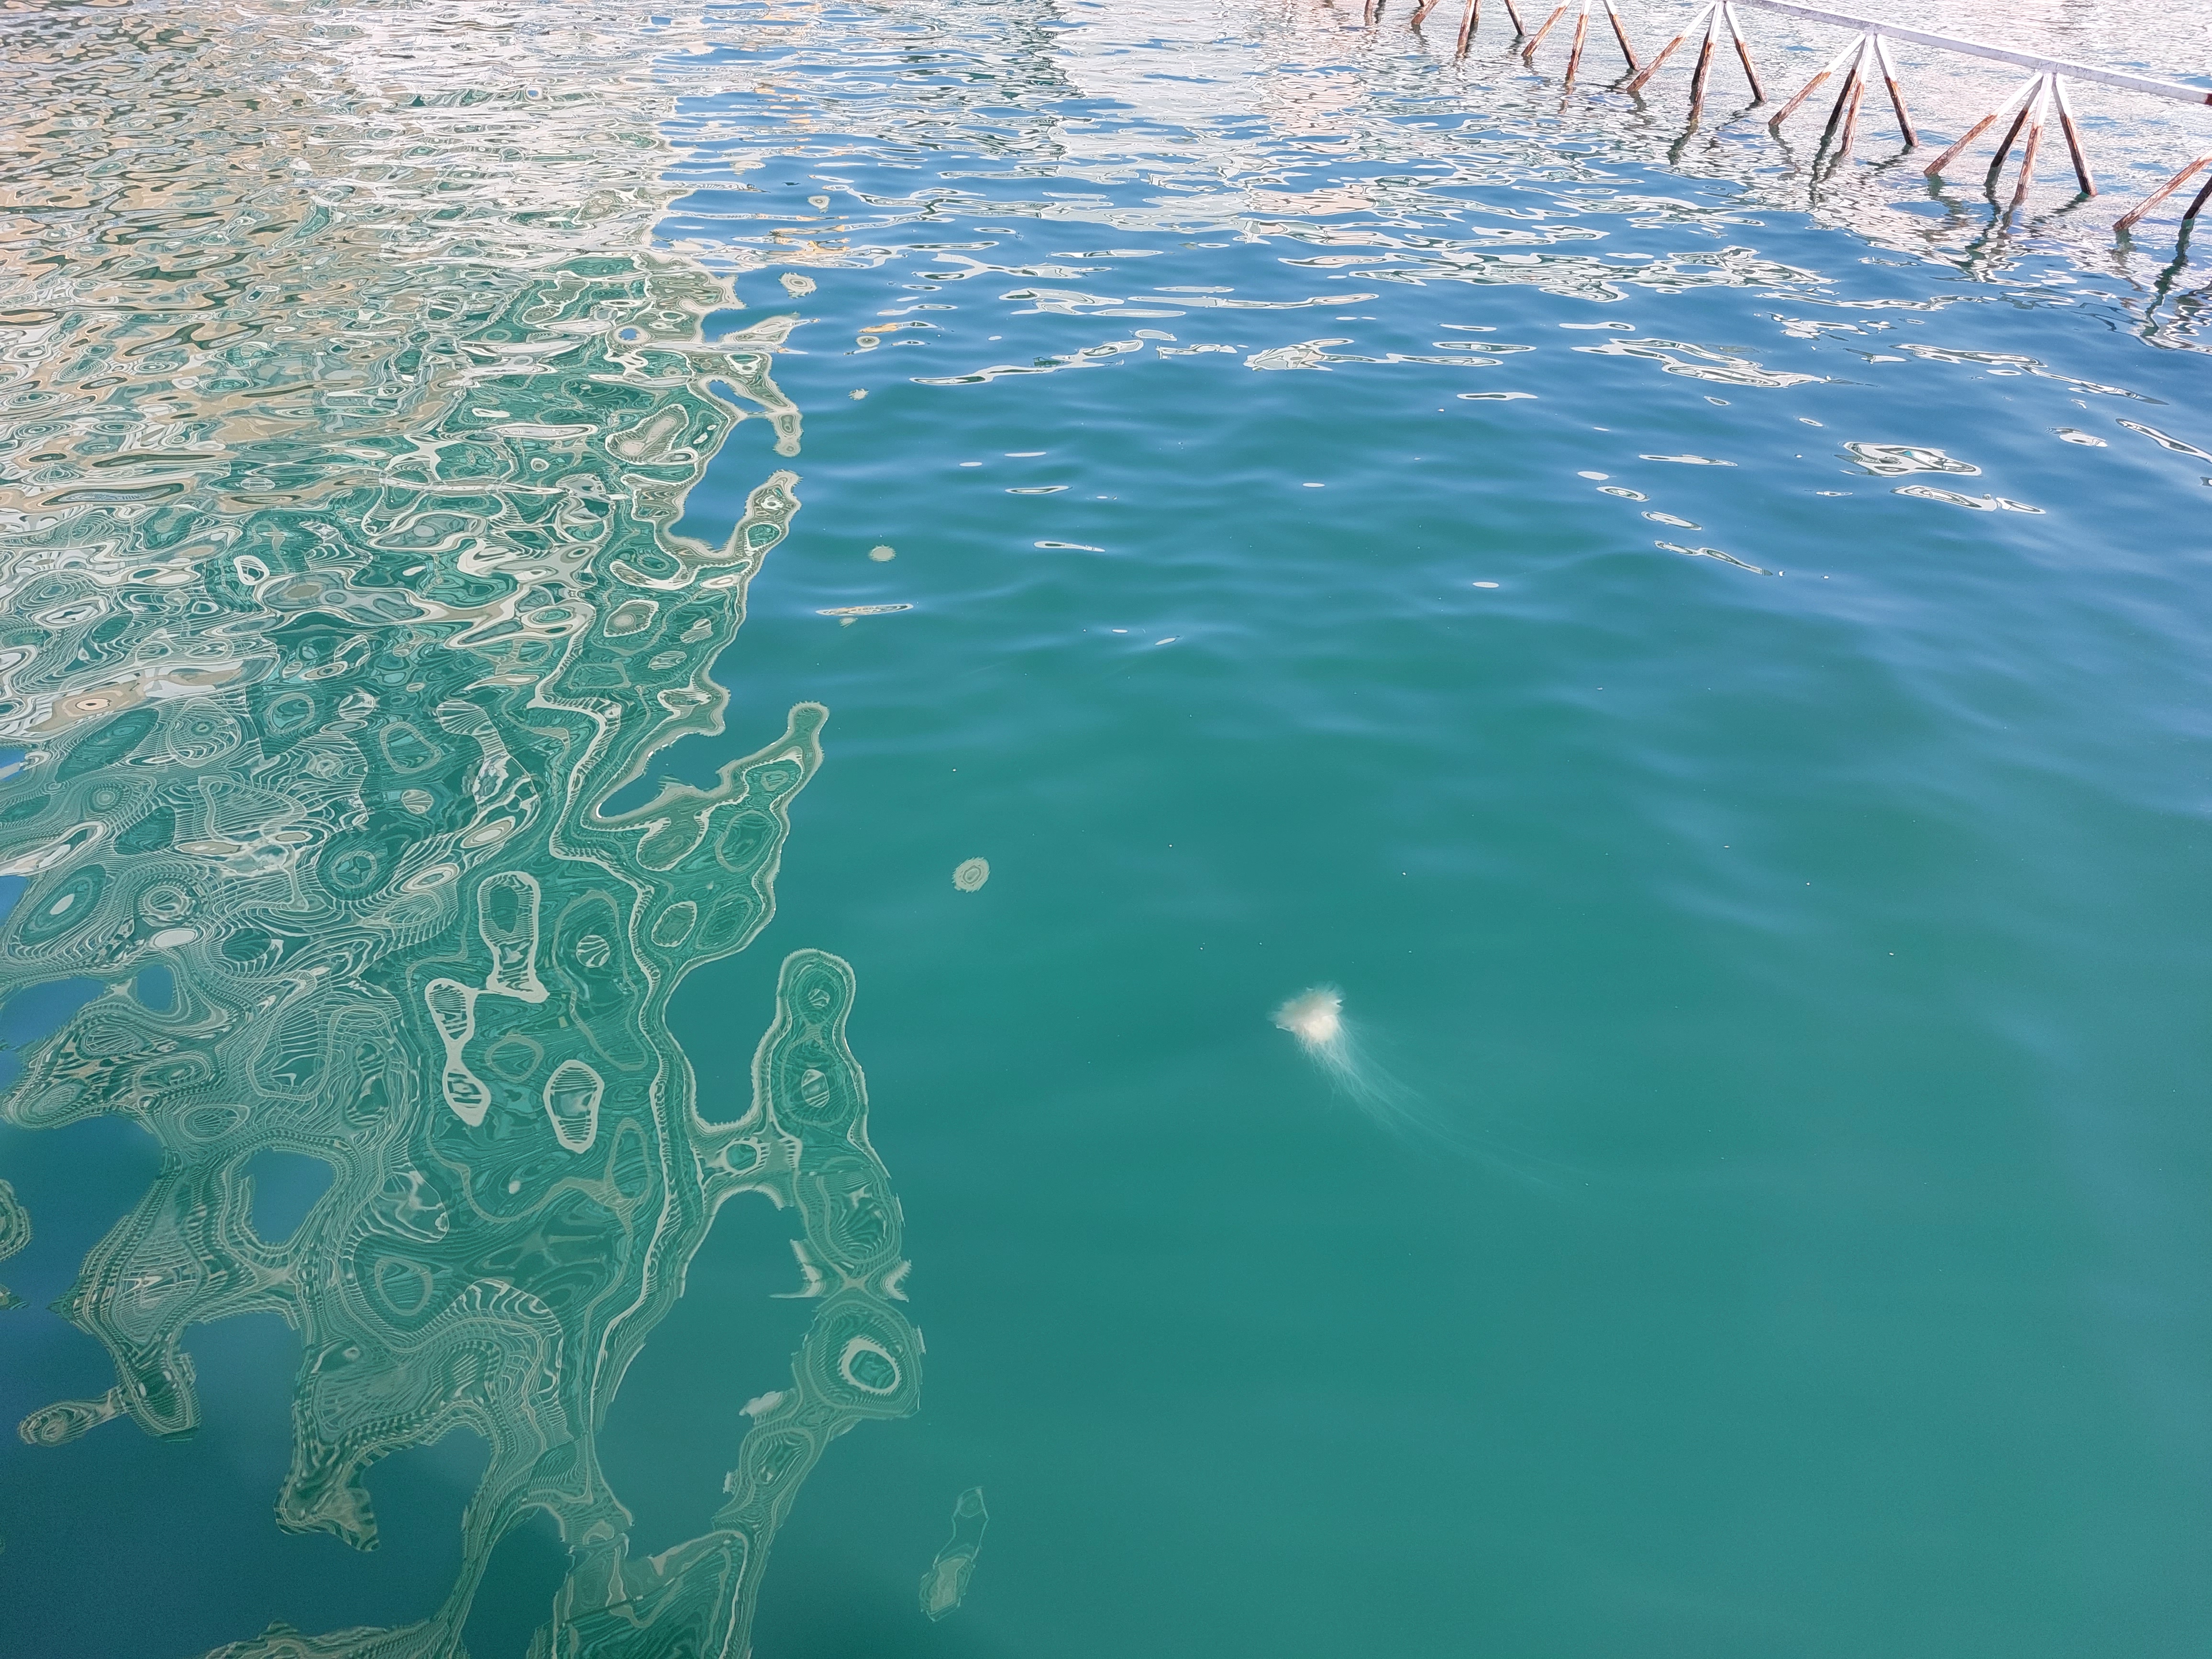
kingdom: Animalia
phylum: Cnidaria
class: Scyphozoa
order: Semaeostomeae
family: Cyaneidae
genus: Cyanea
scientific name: Cyanea nozakii
